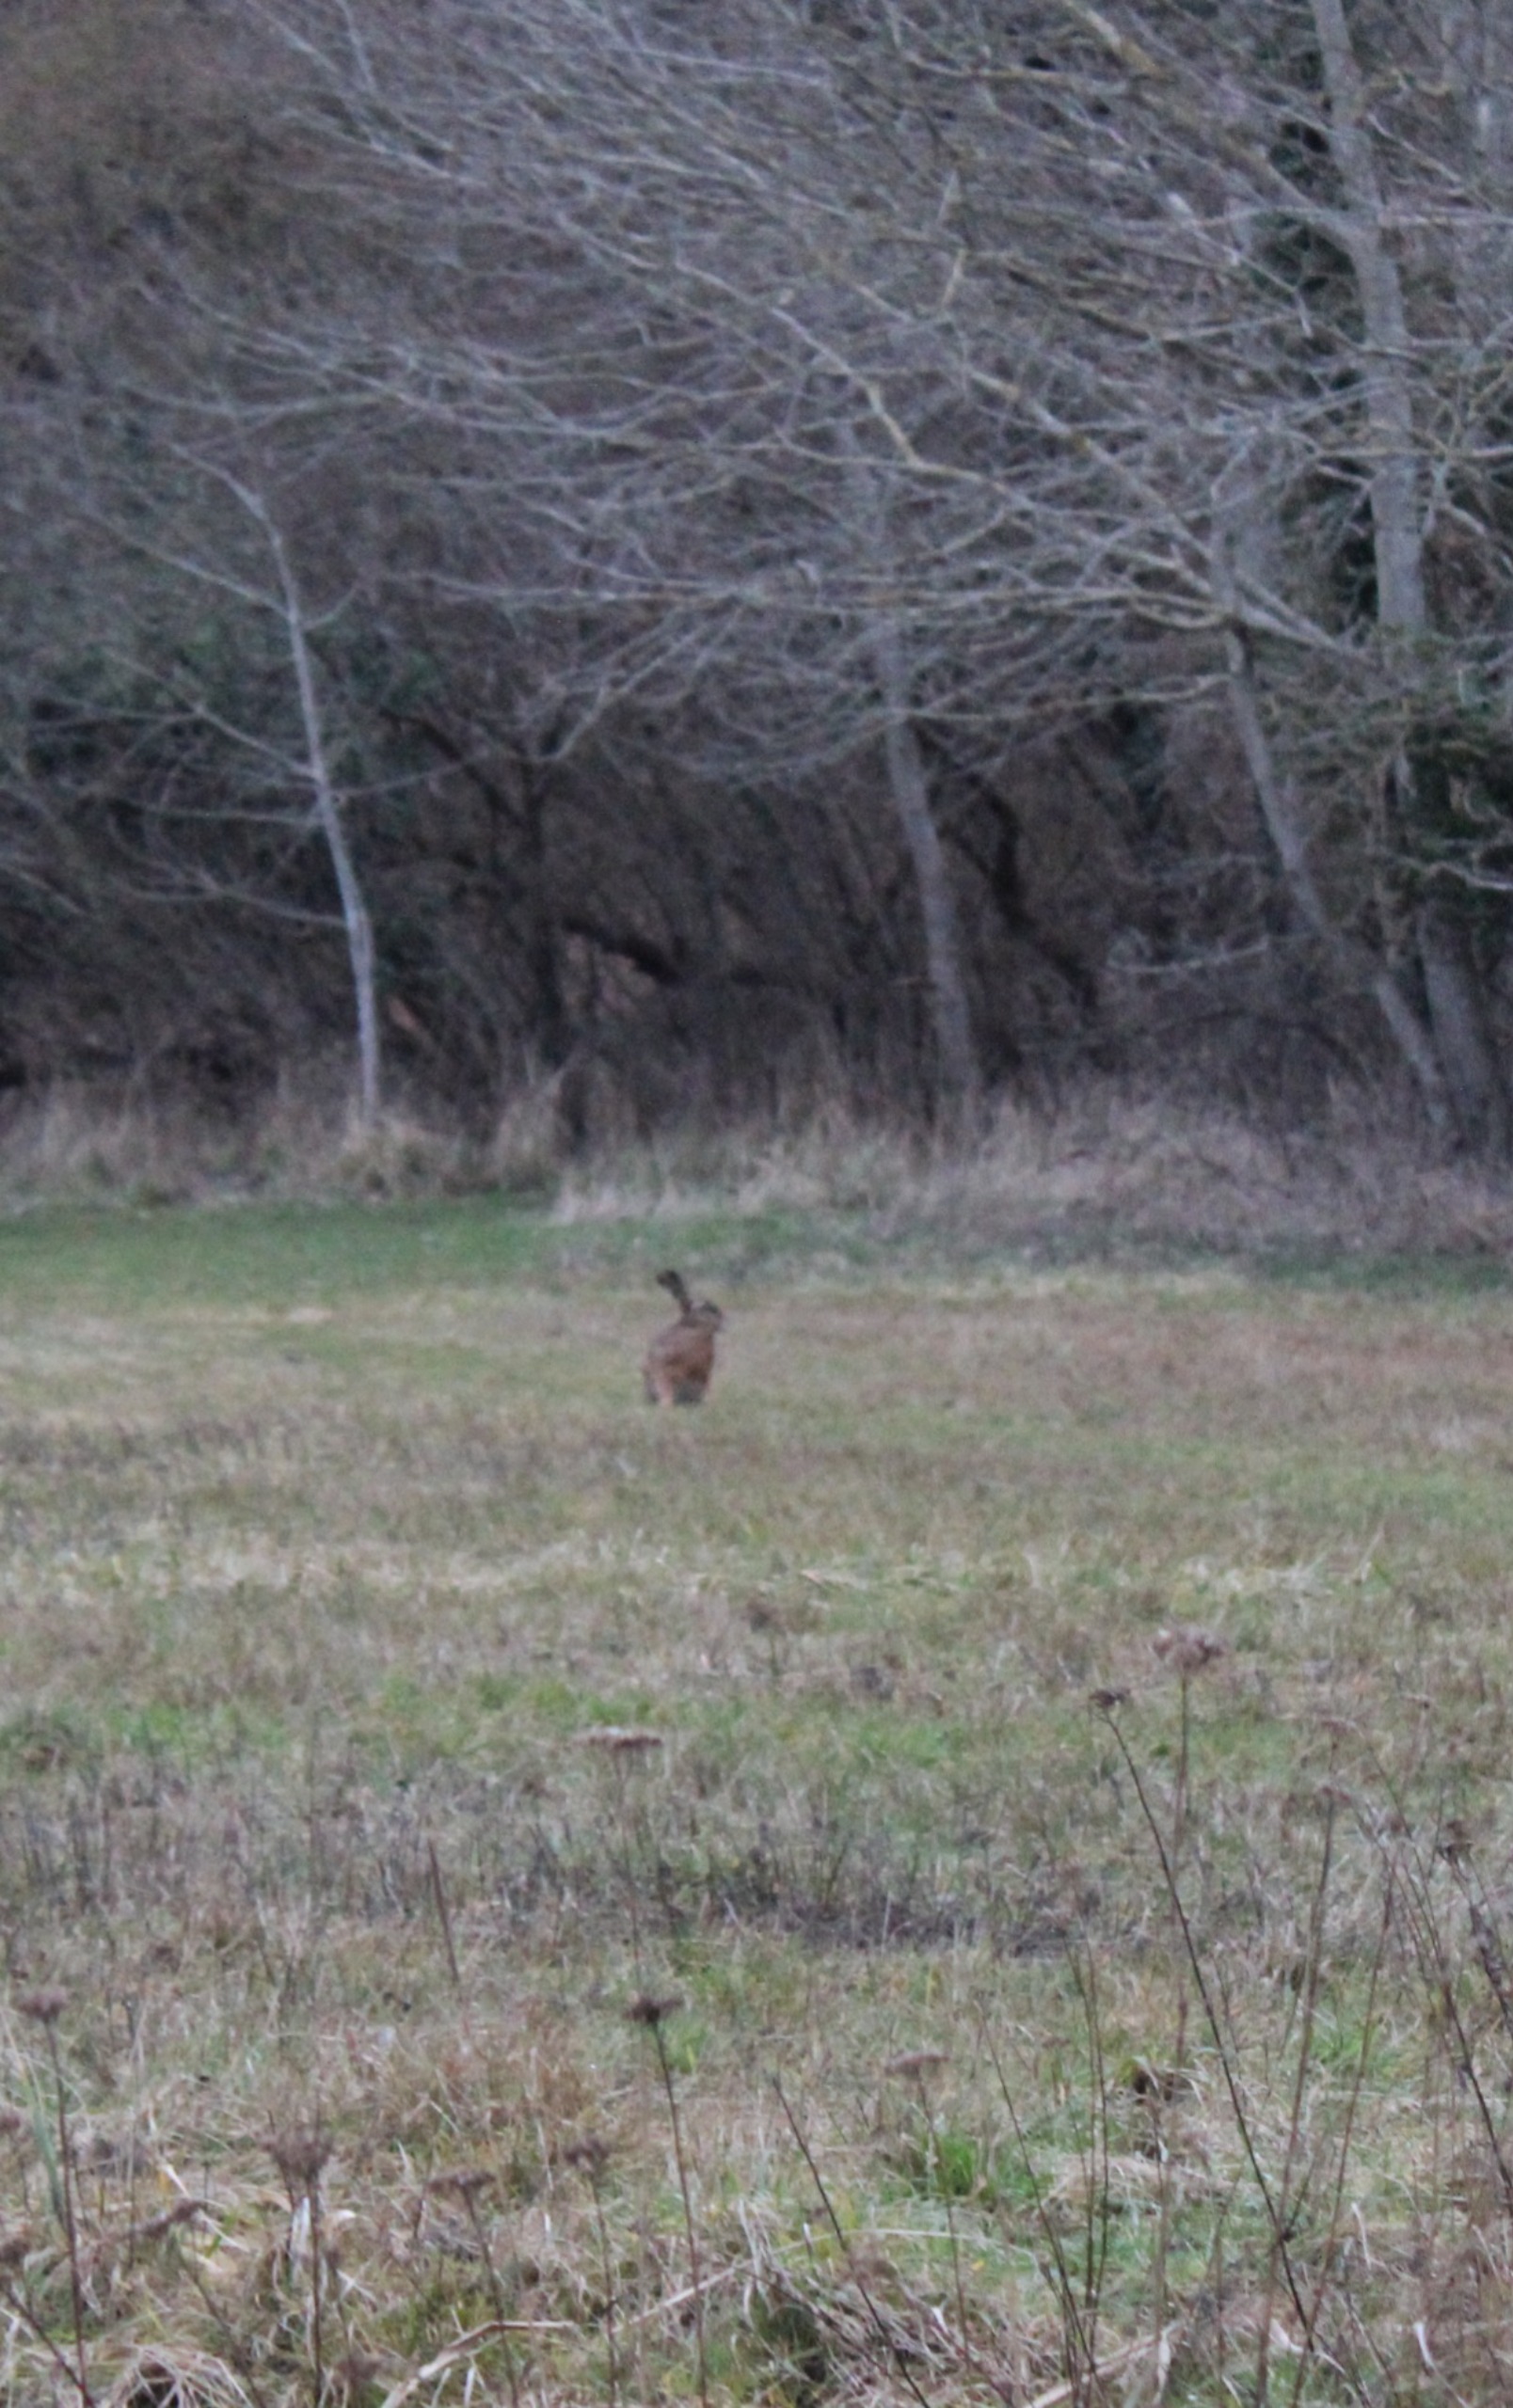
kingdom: Animalia
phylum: Chordata
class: Mammalia
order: Lagomorpha
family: Leporidae
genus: Lepus
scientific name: Lepus europaeus
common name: Hare
